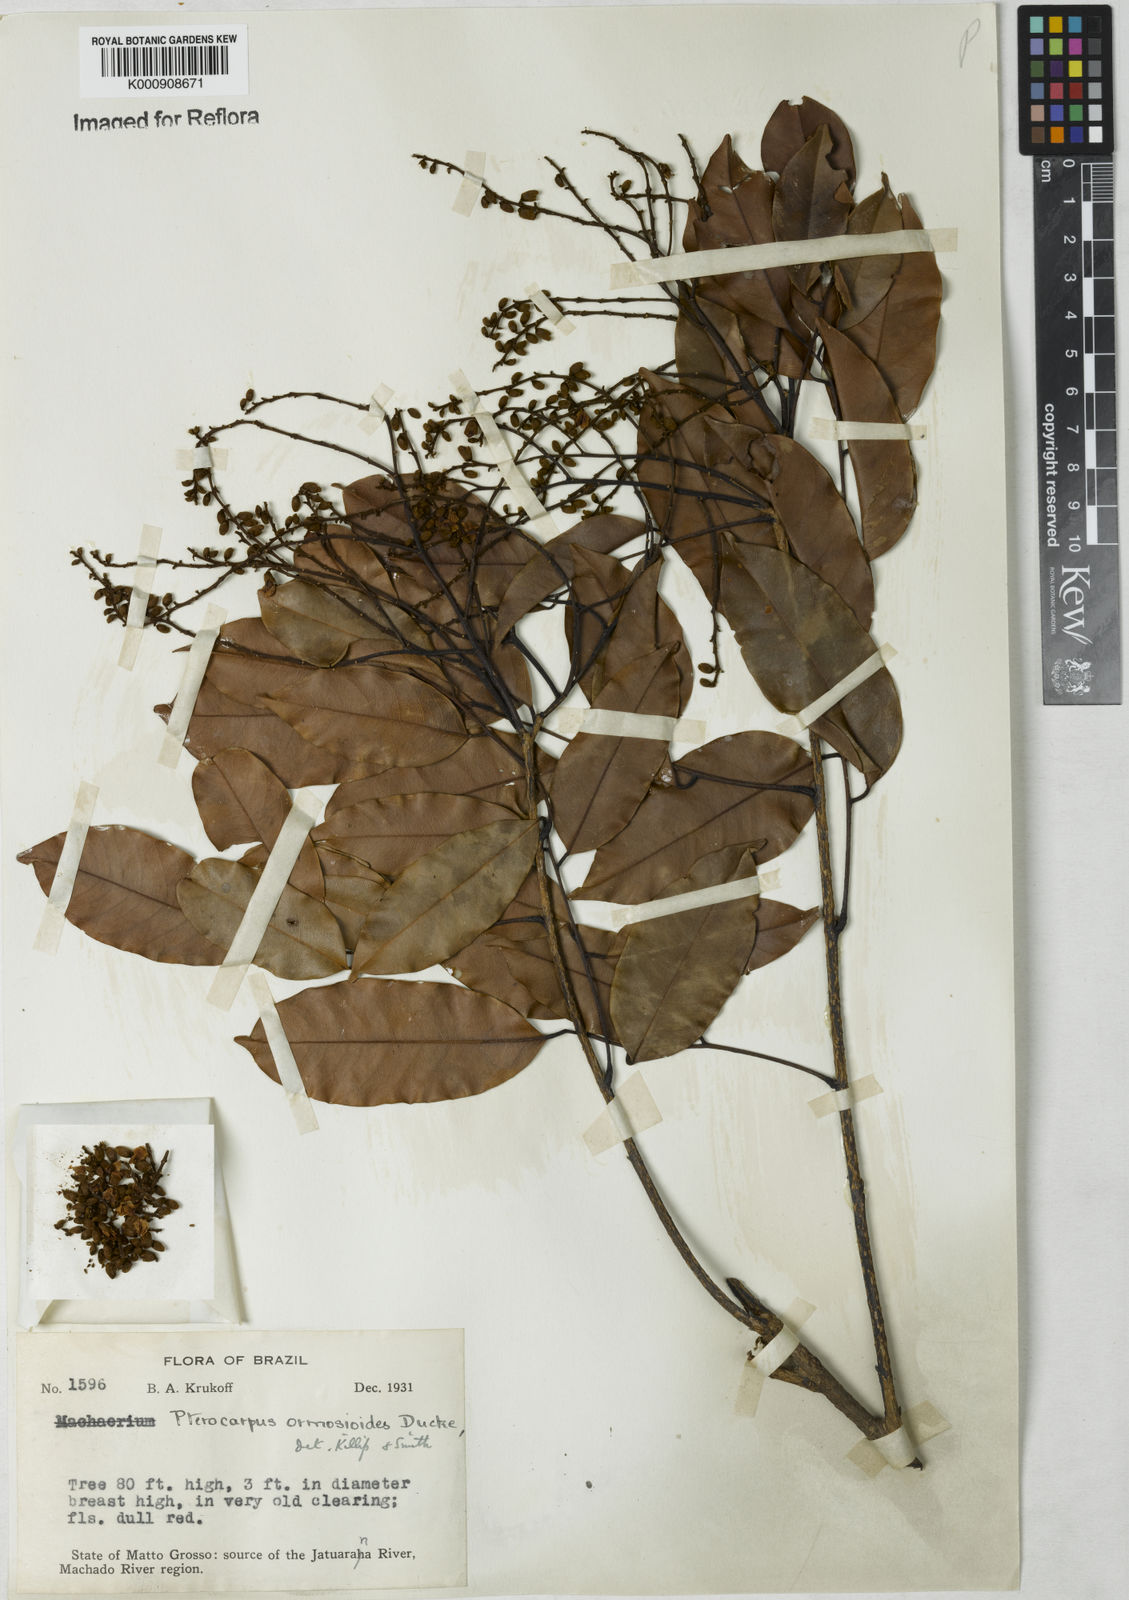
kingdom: Plantae
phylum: Tracheophyta
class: Magnoliopsida
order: Fabales
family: Fabaceae
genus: Paramachaerium
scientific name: Paramachaerium ormosioides
